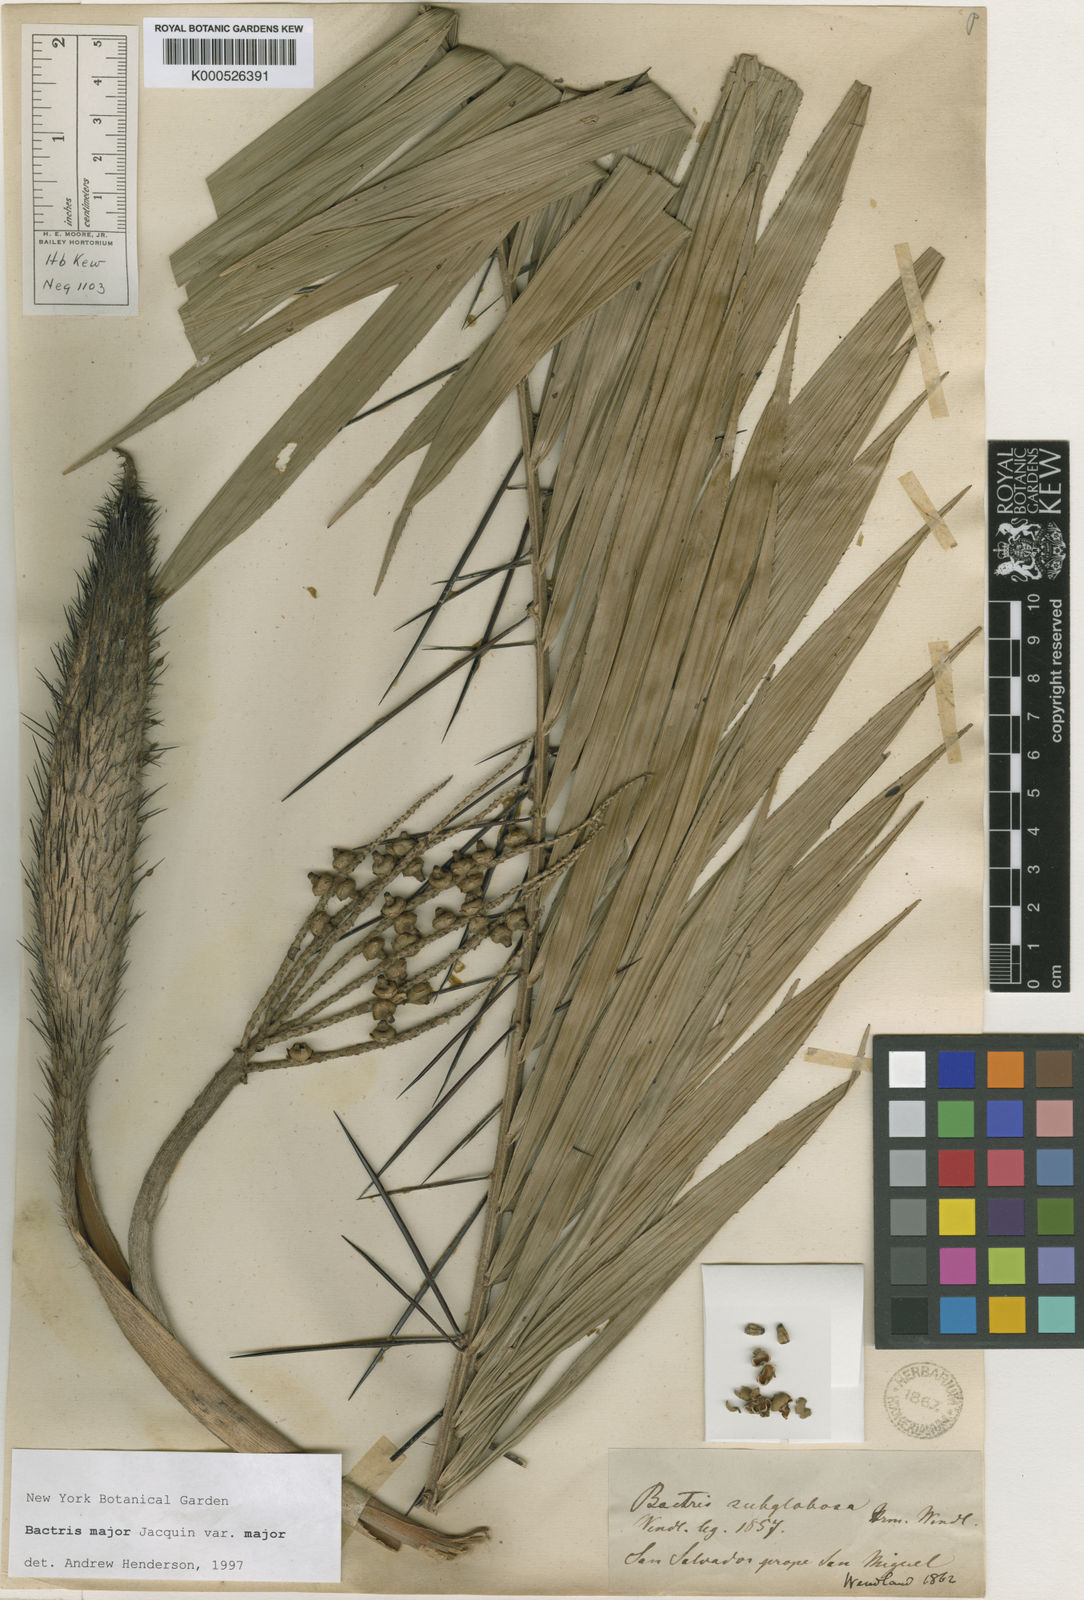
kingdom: Plantae
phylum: Tracheophyta
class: Liliopsida
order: Arecales
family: Arecaceae
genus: Bactris
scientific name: Bactris major
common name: Beach palm
